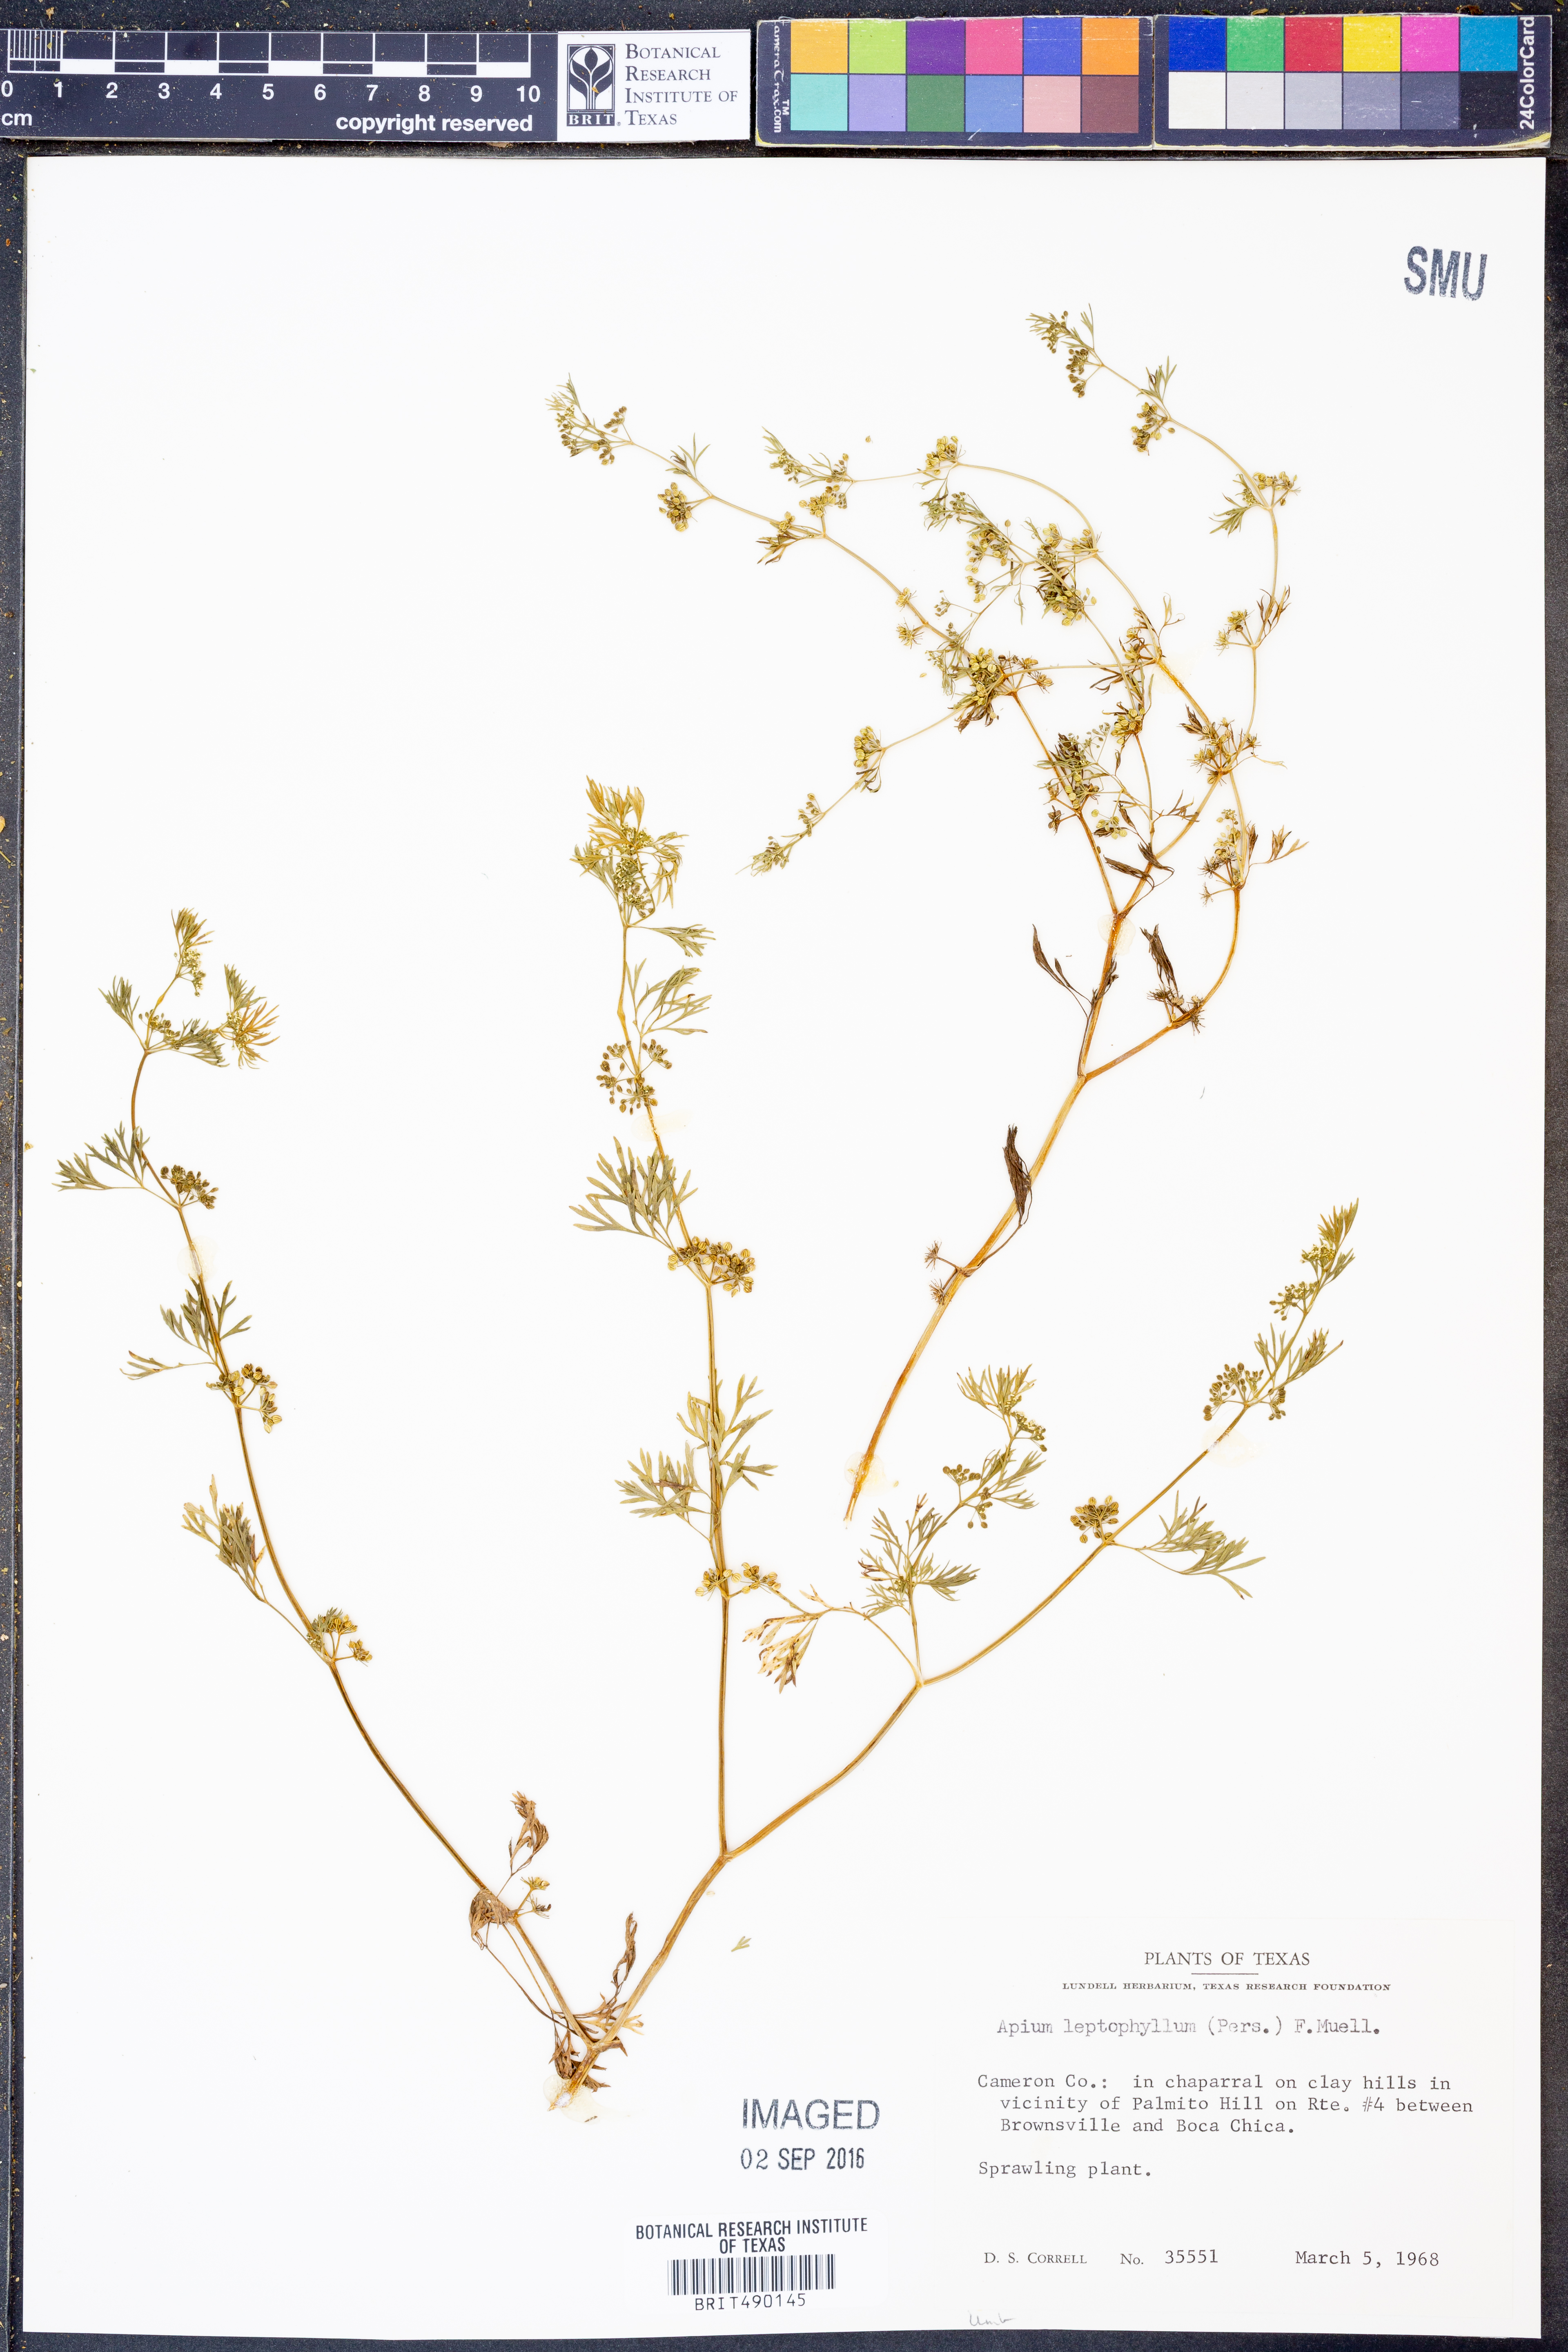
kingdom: Plantae
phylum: Tracheophyta
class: Magnoliopsida
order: Apiales
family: Apiaceae
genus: Cyclospermum
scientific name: Cyclospermum leptophyllum
